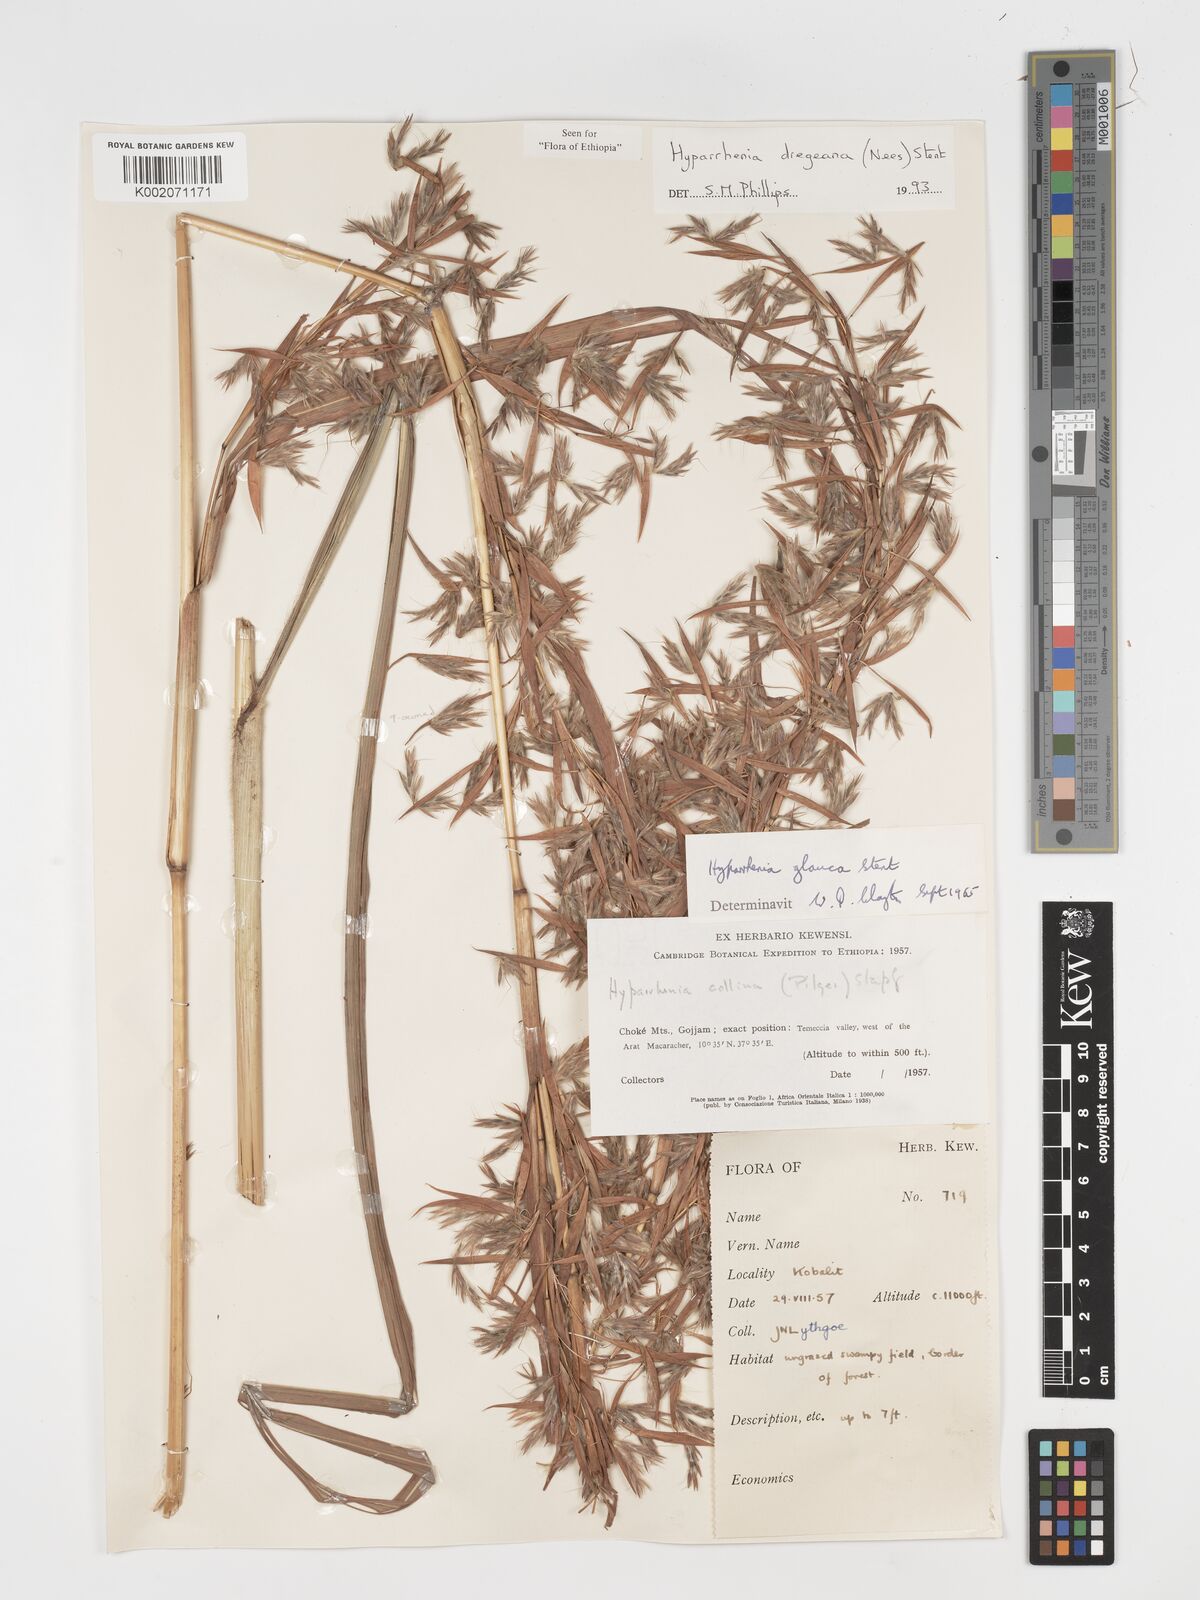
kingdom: Plantae
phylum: Tracheophyta
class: Liliopsida
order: Poales
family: Poaceae
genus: Hyparrhenia
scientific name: Hyparrhenia dregeana
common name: Silky thatching grass
